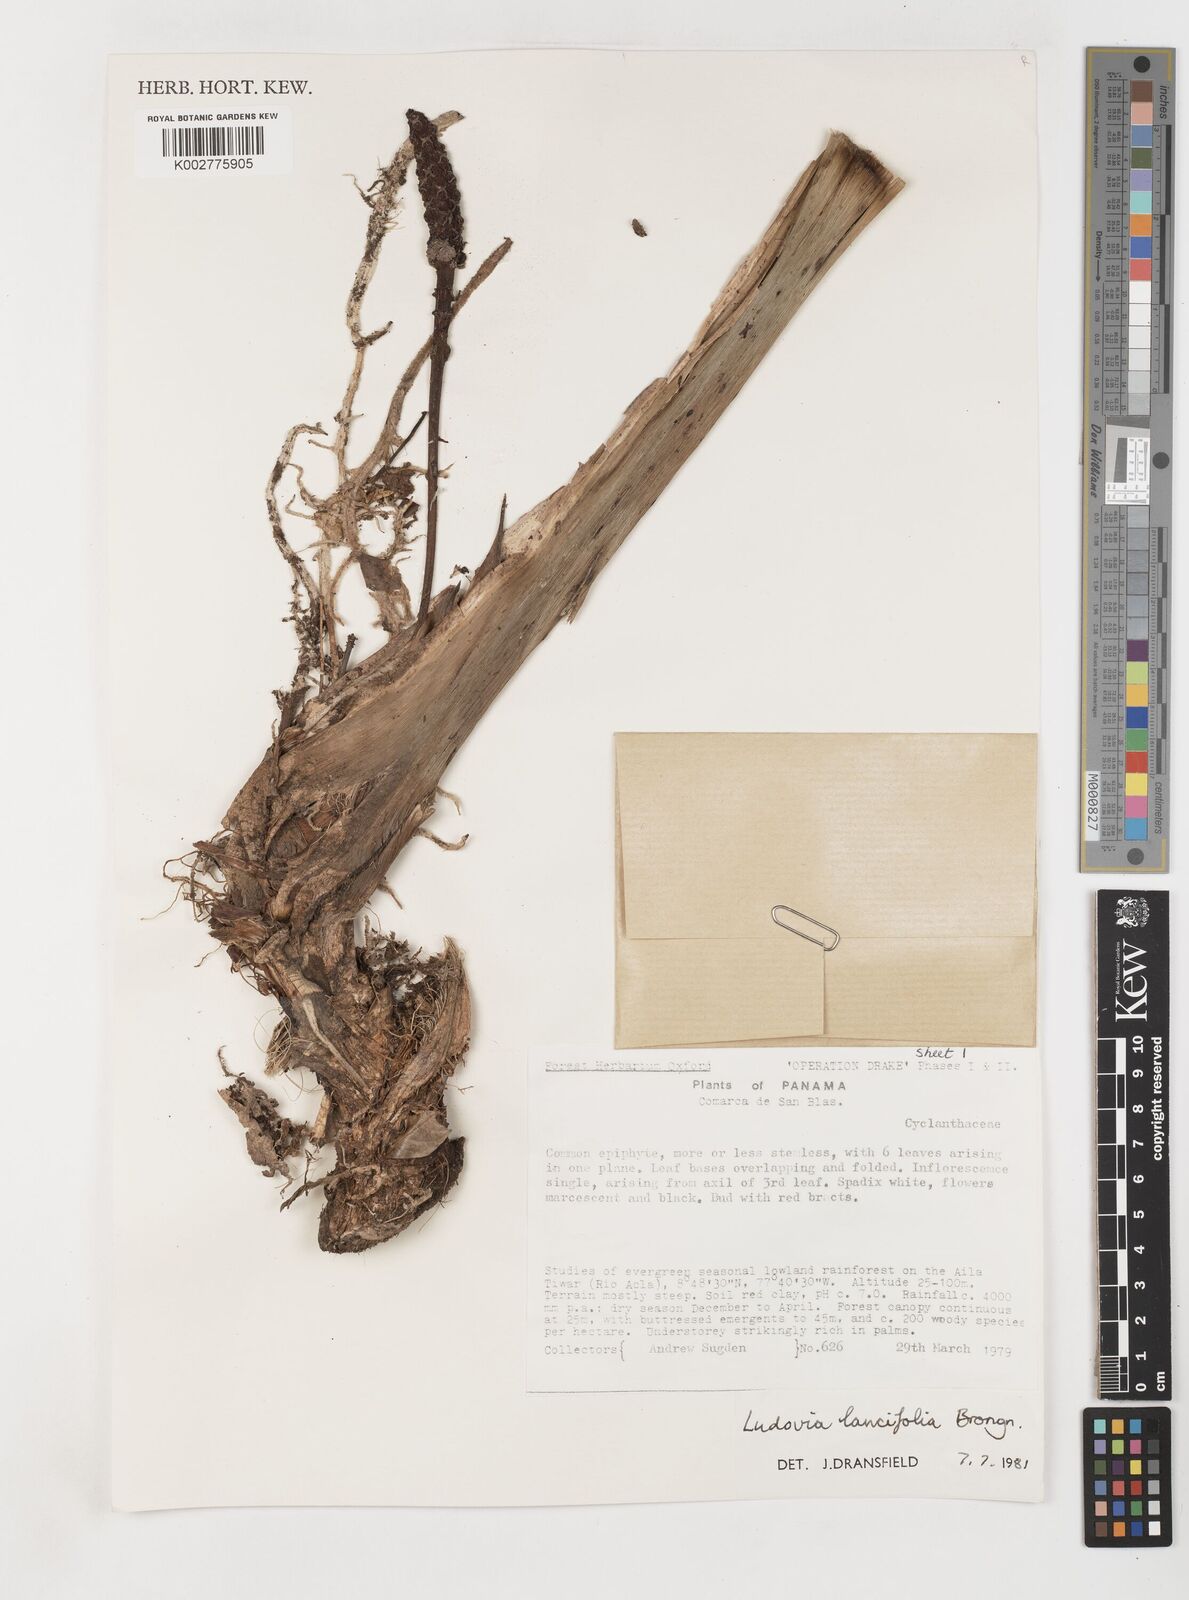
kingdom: Plantae
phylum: Tracheophyta
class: Liliopsida
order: Pandanales
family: Cyclanthaceae
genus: Ludovia
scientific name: Ludovia lancifolia
